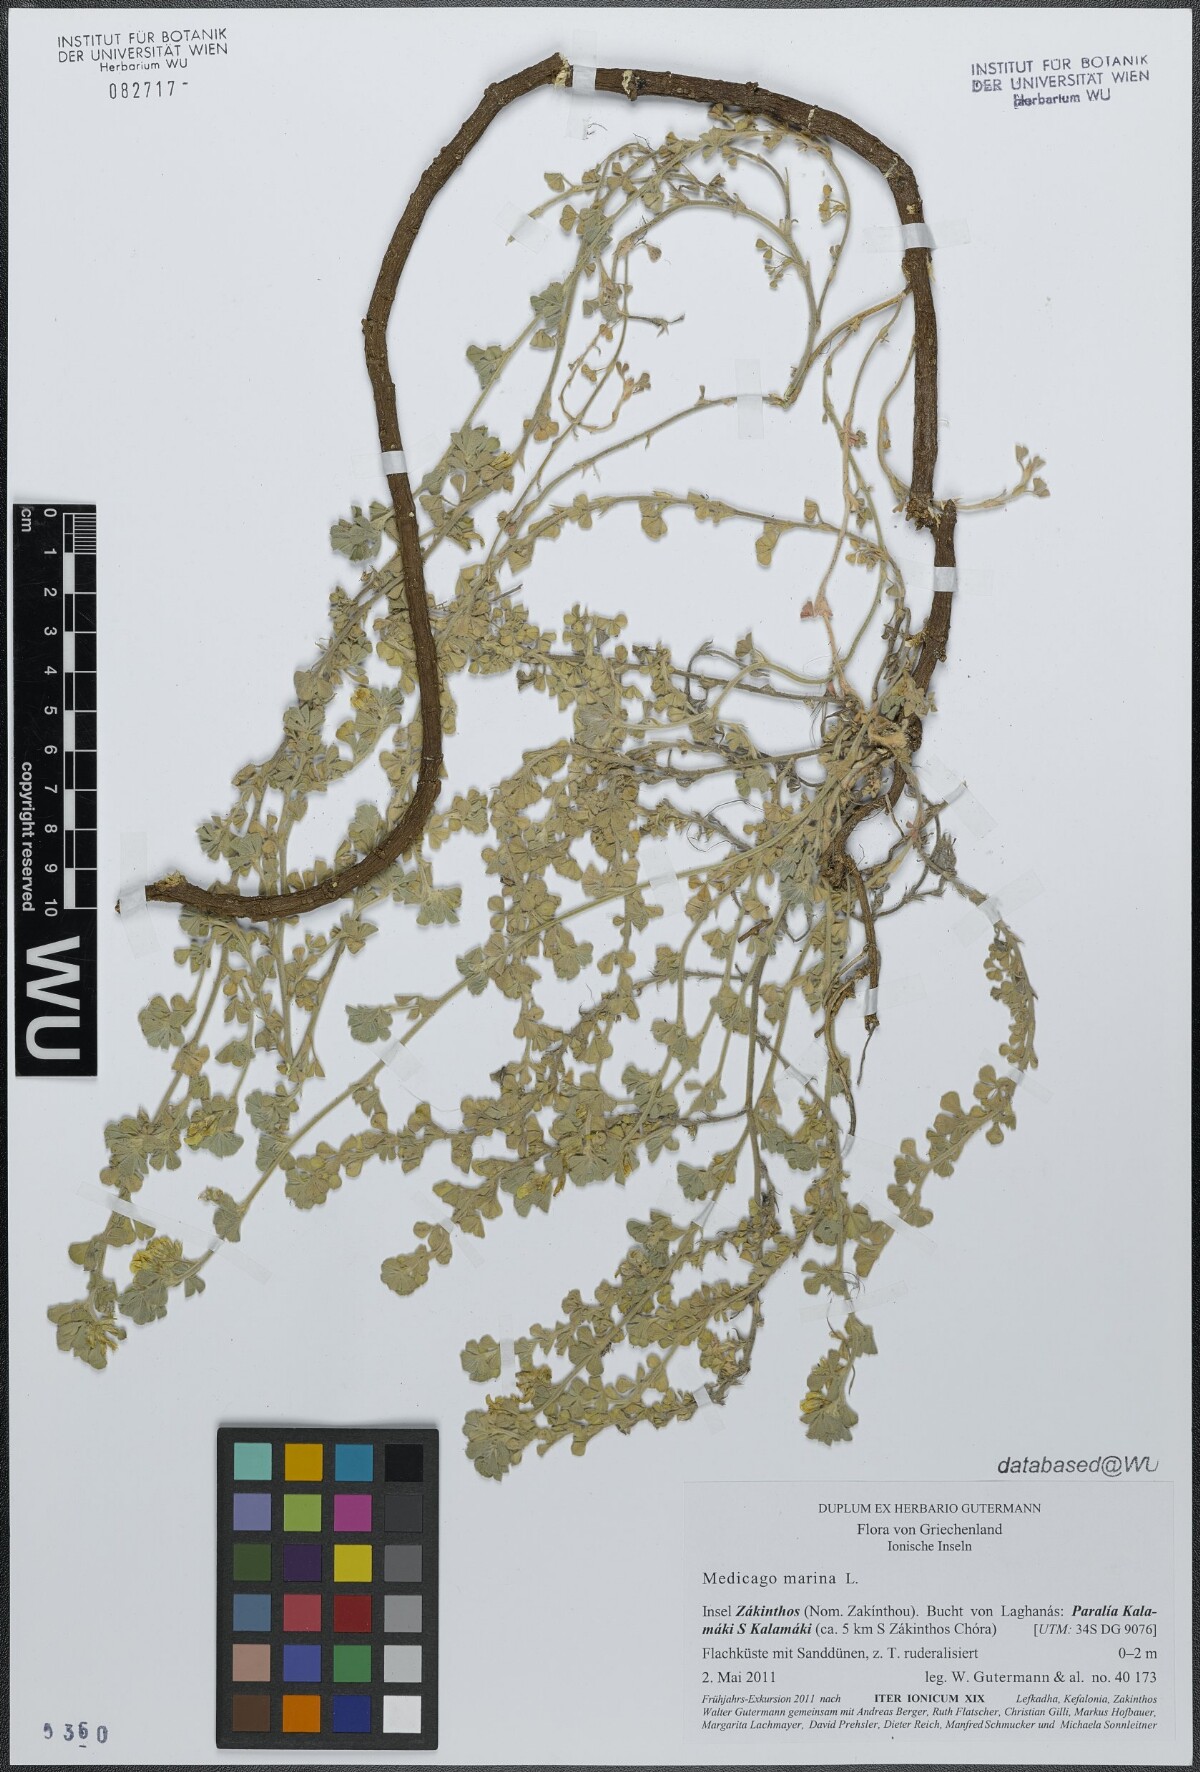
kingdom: Plantae
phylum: Tracheophyta
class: Magnoliopsida
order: Fabales
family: Fabaceae
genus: Medicago
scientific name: Medicago marina
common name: Sea medick
